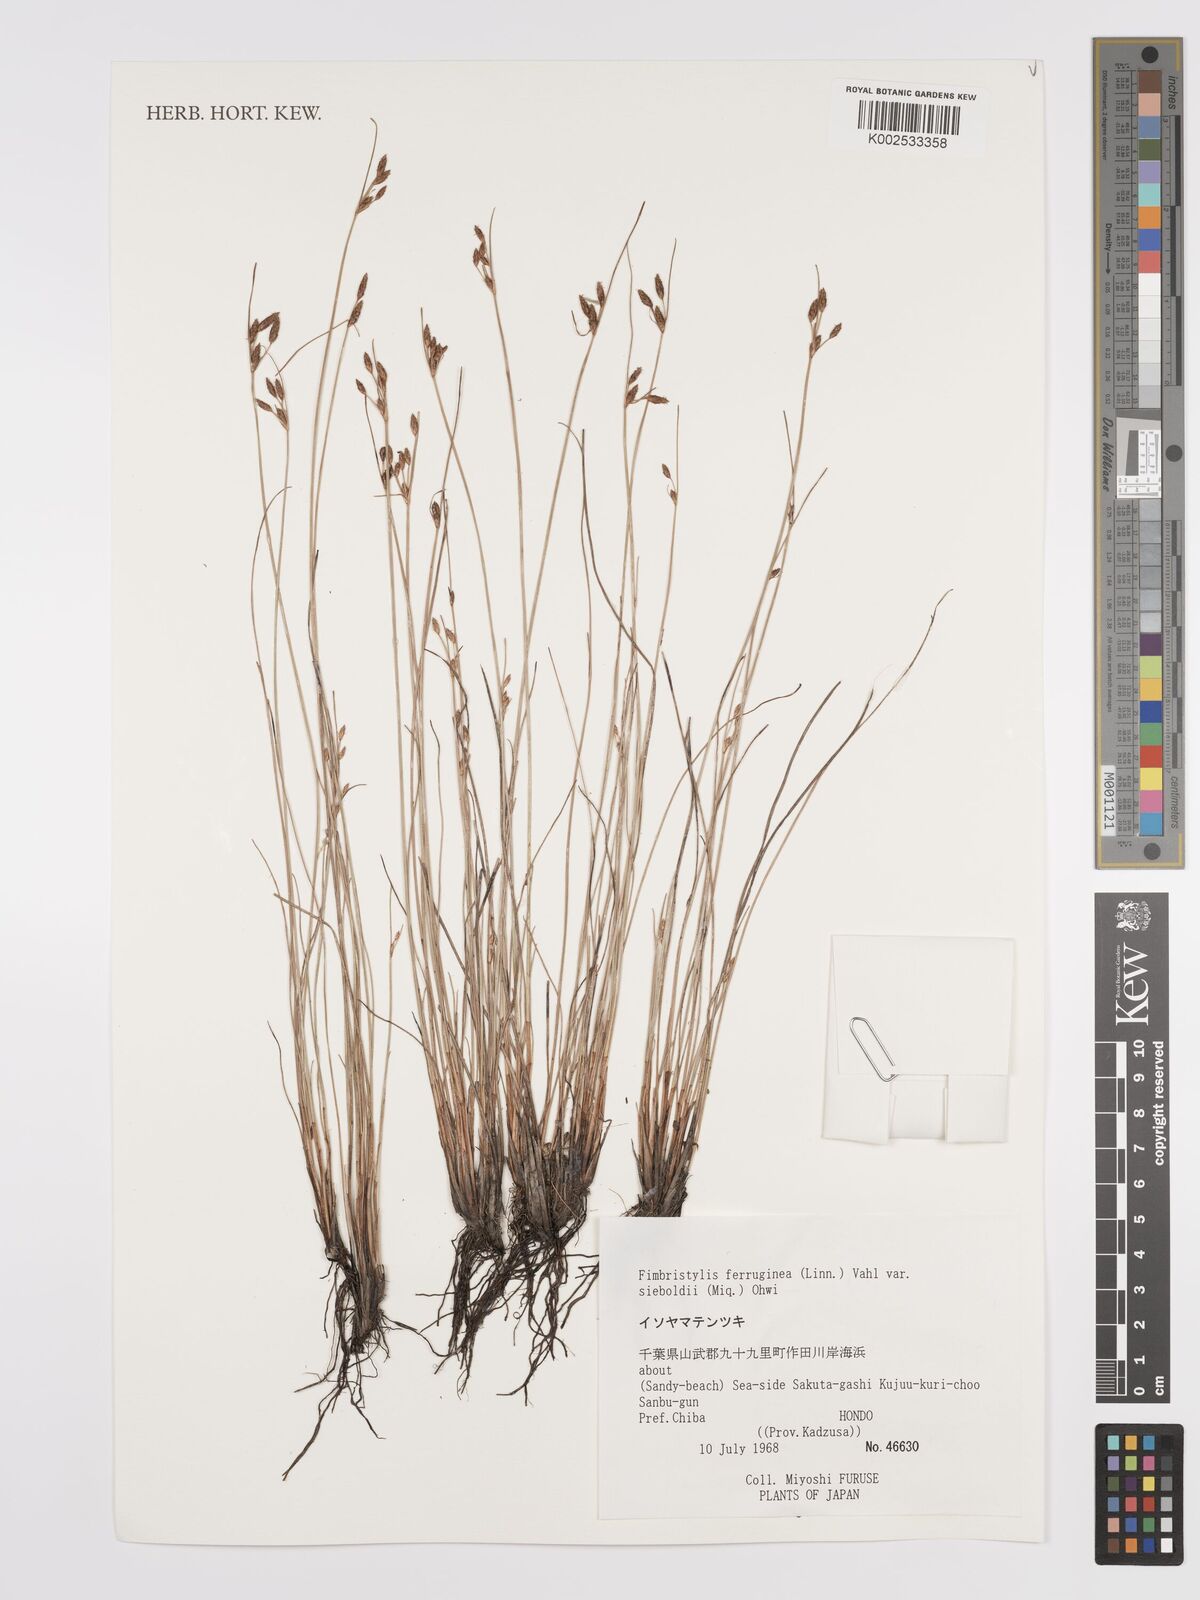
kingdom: Plantae
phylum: Tracheophyta
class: Liliopsida
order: Poales
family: Cyperaceae
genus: Fimbristylis
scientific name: Fimbristylis ferruginea
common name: West indian fimbry
